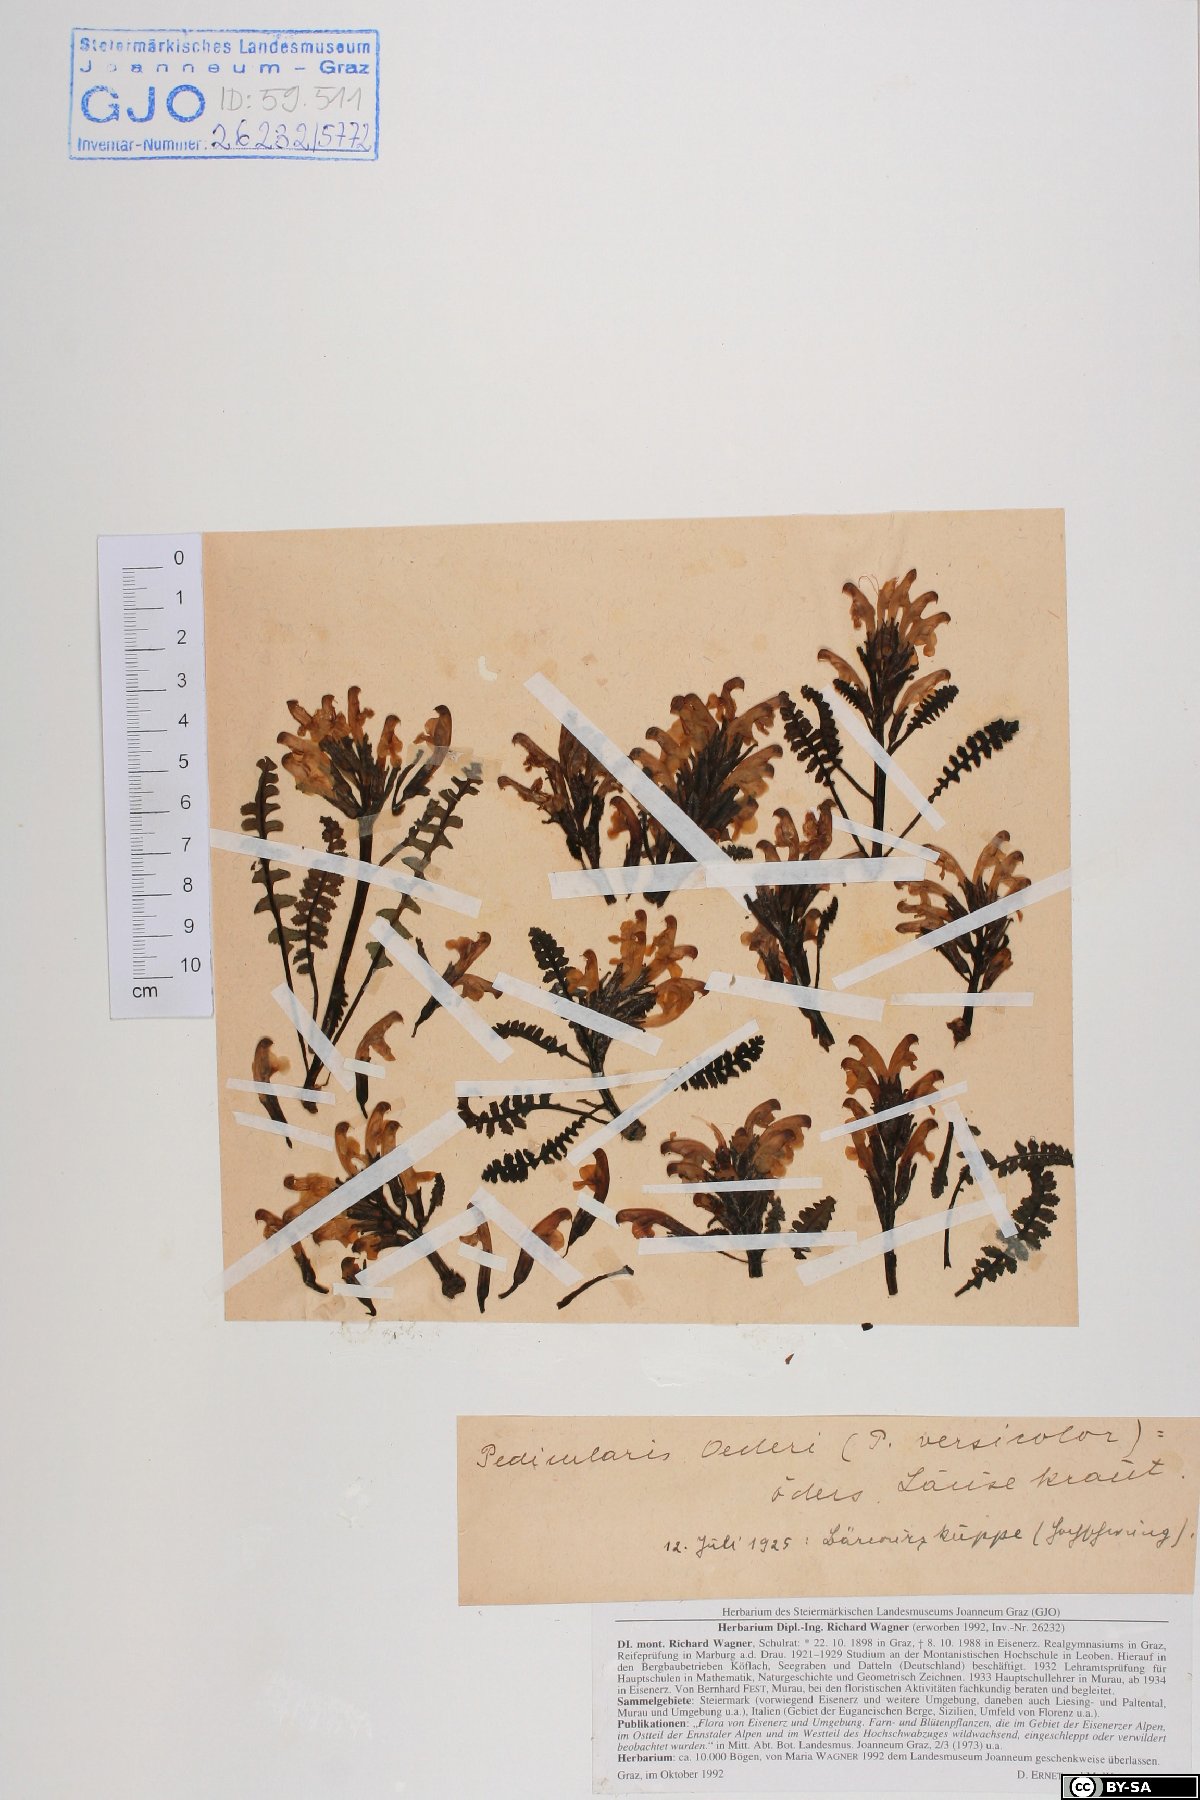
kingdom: Plantae
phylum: Tracheophyta
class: Magnoliopsida
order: Lamiales
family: Orobanchaceae
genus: Pedicularis
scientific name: Pedicularis oederi
